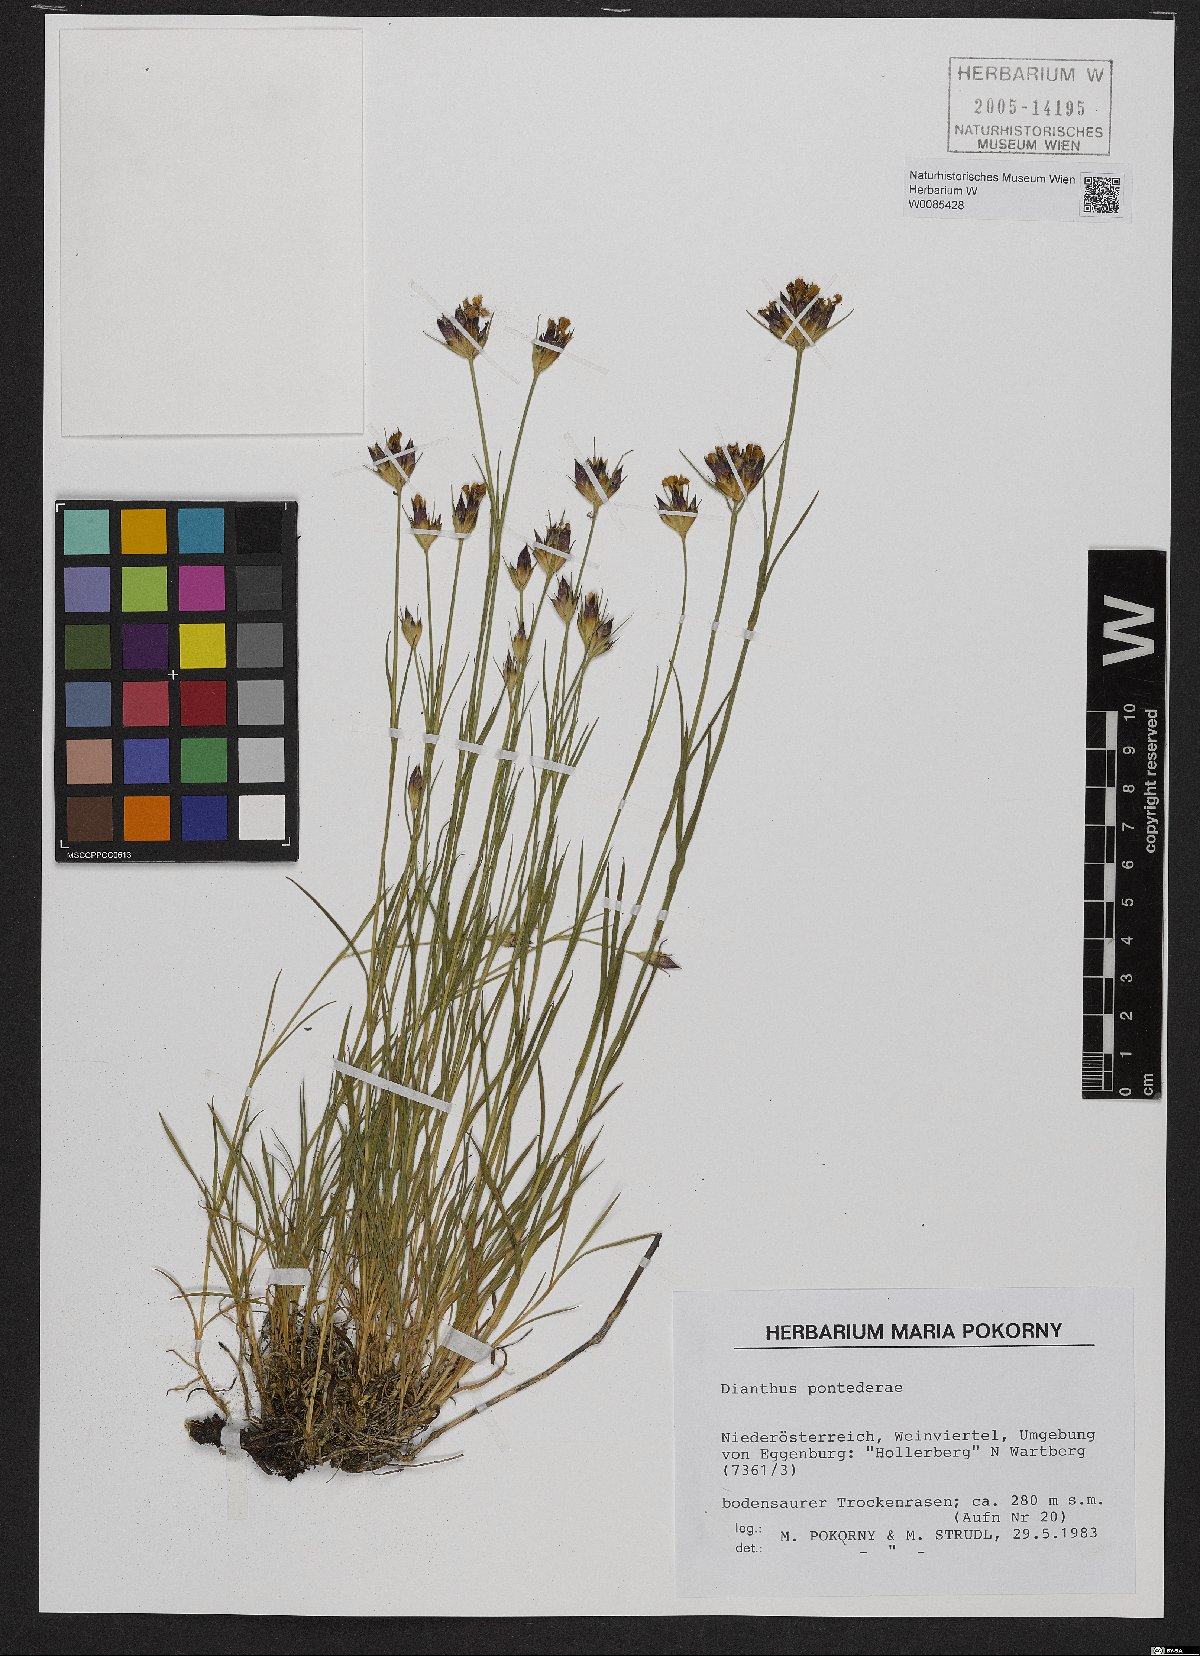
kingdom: Plantae
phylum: Tracheophyta
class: Magnoliopsida
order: Caryophyllales
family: Caryophyllaceae
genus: Dianthus
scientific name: Dianthus pontederae
